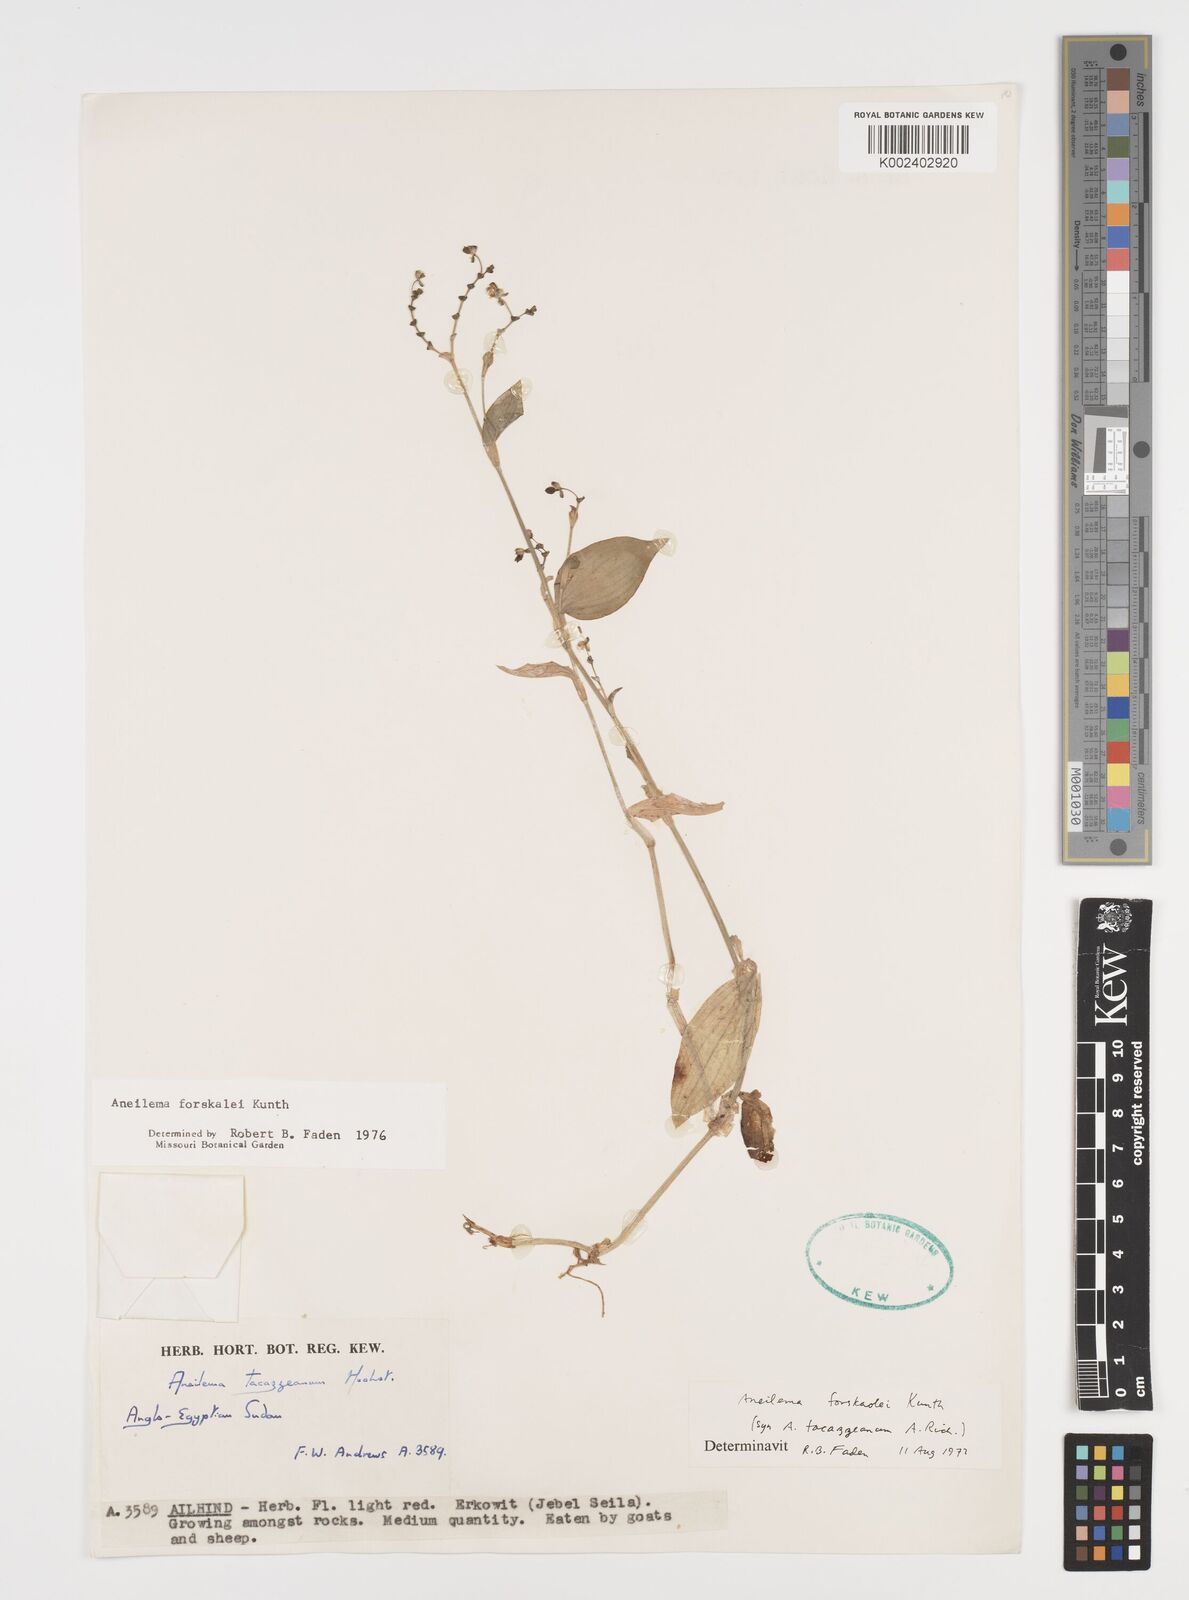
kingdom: Plantae
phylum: Tracheophyta
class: Liliopsida
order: Commelinales
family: Commelinaceae
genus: Aneilema
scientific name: Aneilema forskalii
